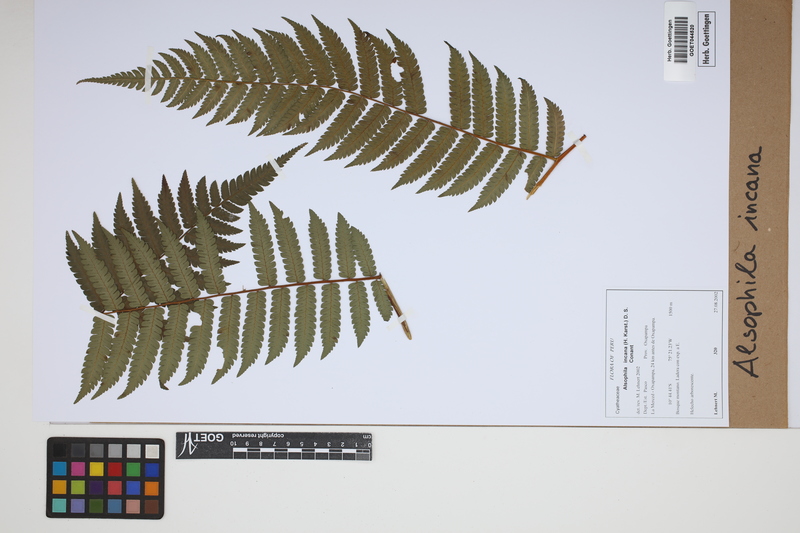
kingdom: Plantae
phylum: Tracheophyta
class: Polypodiopsida
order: Cyatheales
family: Cyatheaceae
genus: Alsophila
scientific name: Alsophila incana
